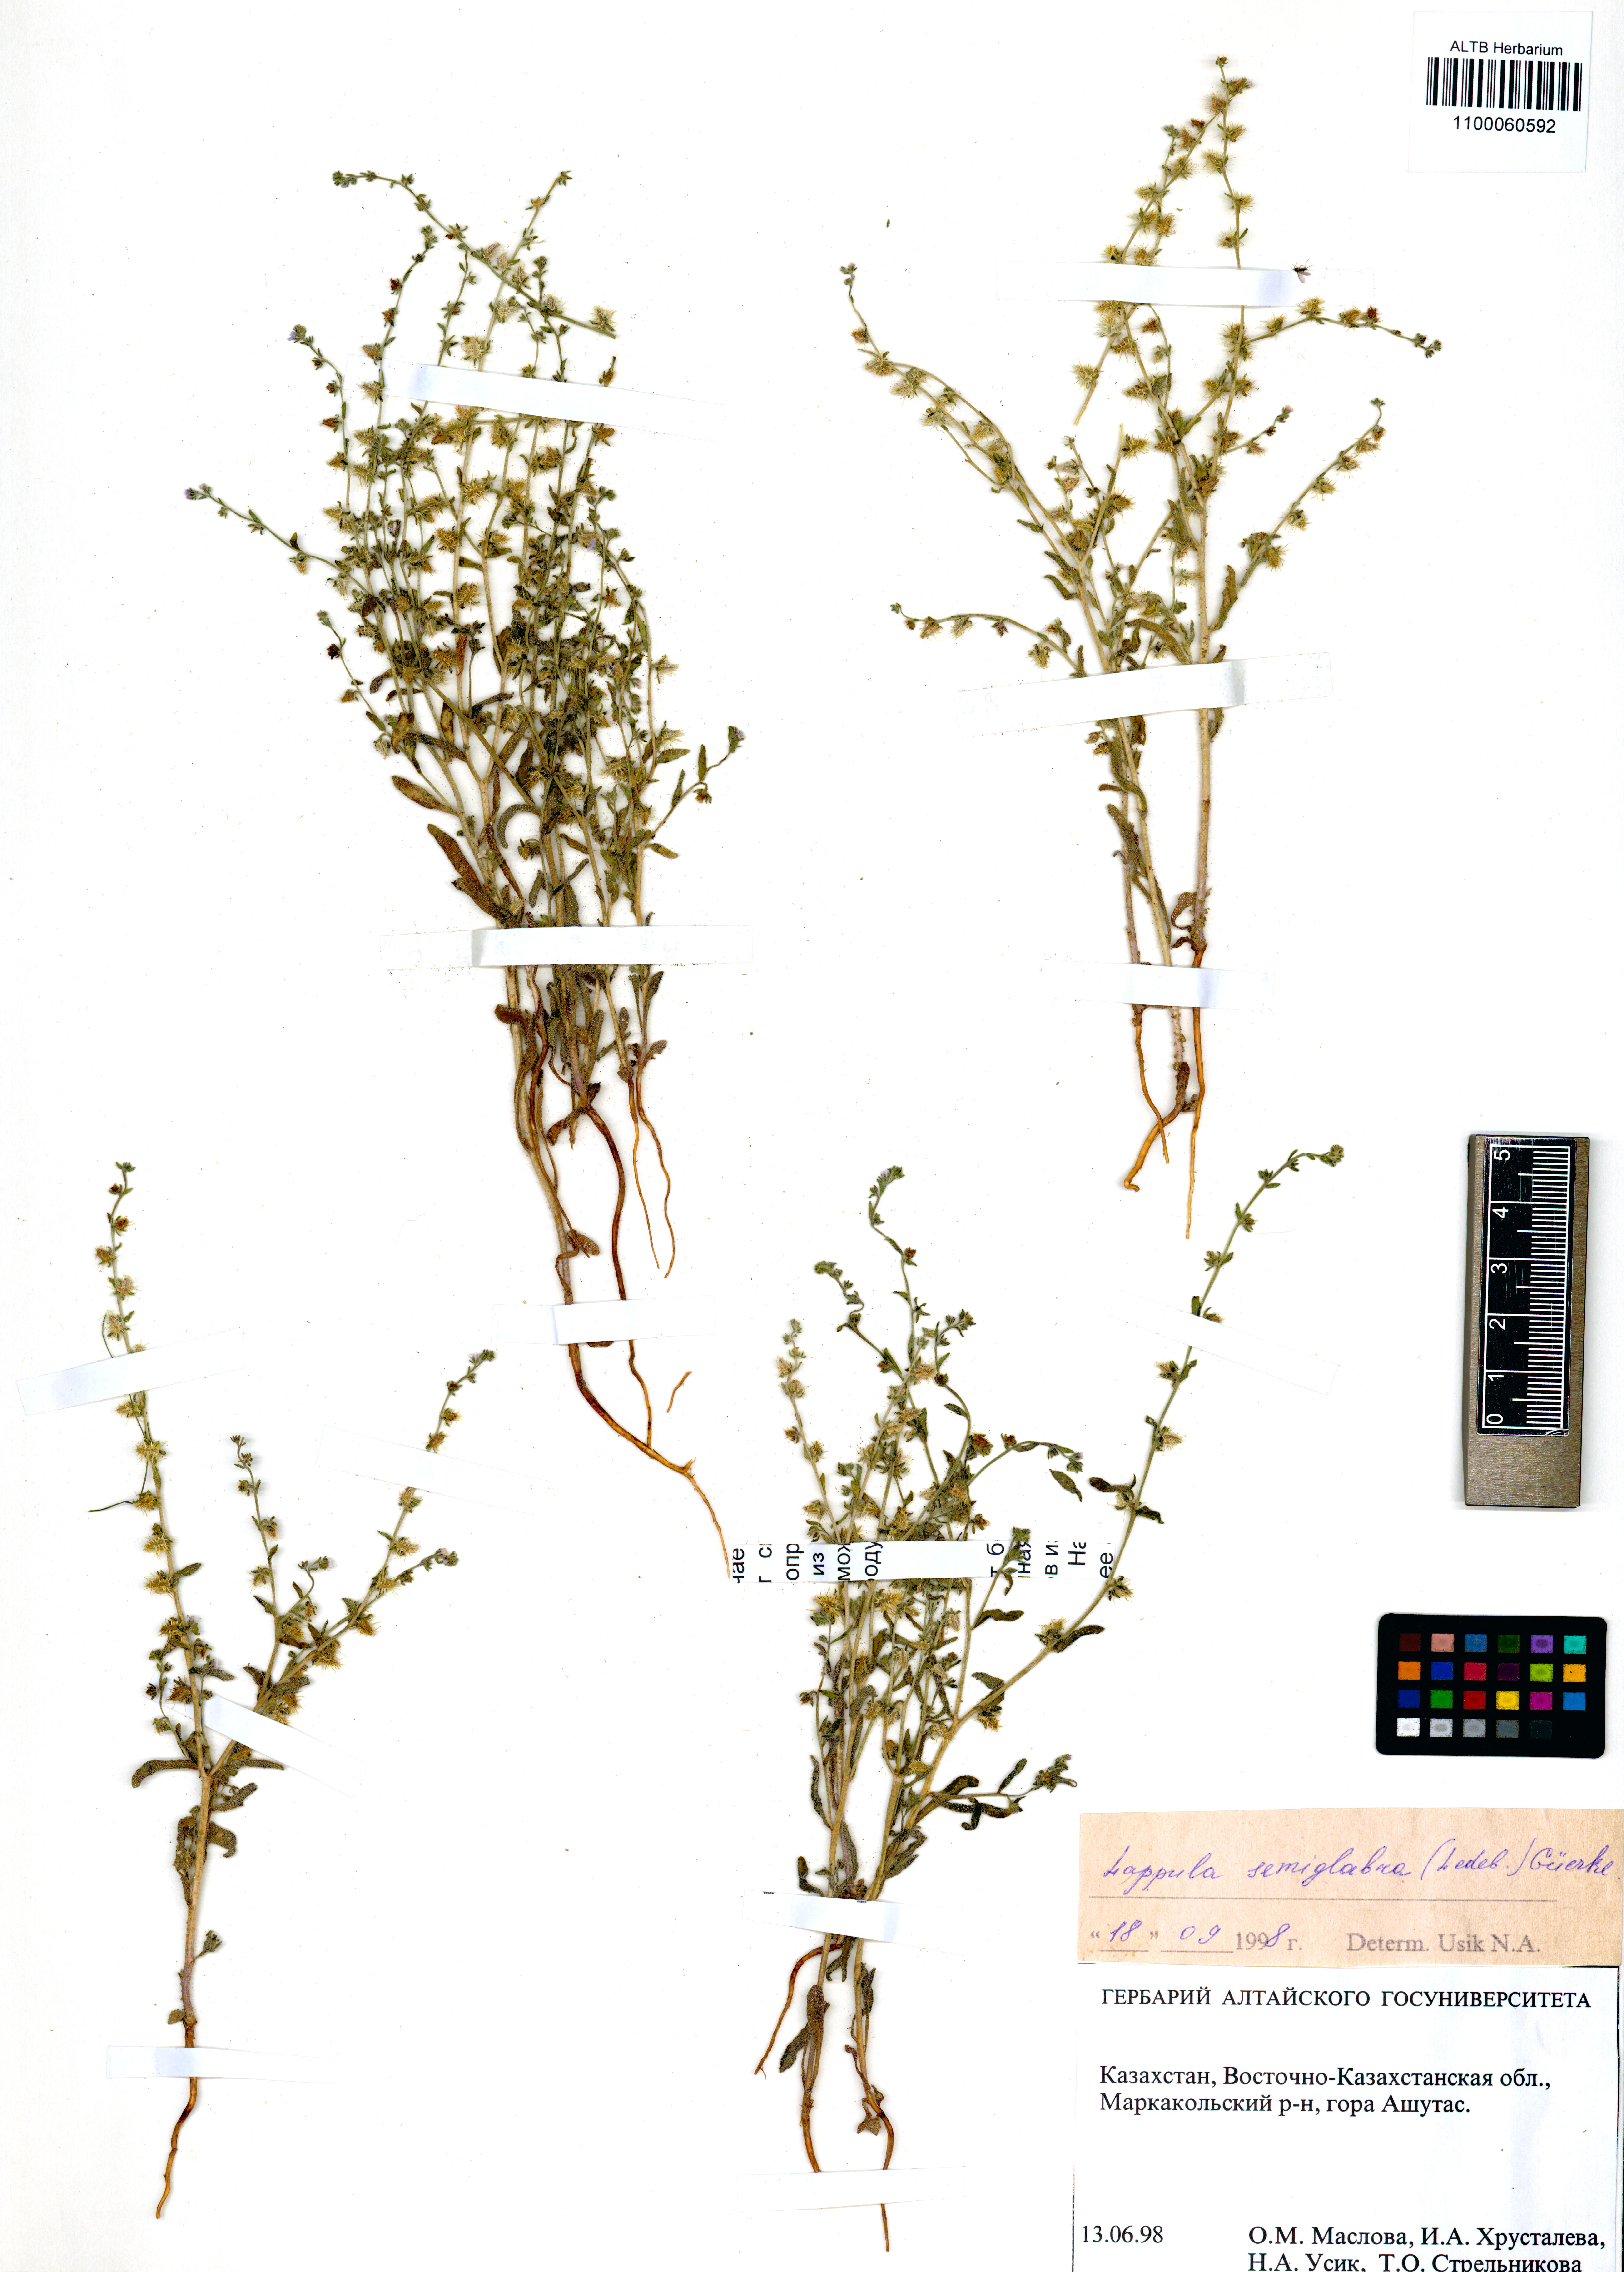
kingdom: Plantae
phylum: Tracheophyta
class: Magnoliopsida
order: Boraginales
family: Boraginaceae
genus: Lappula
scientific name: Lappula patula
